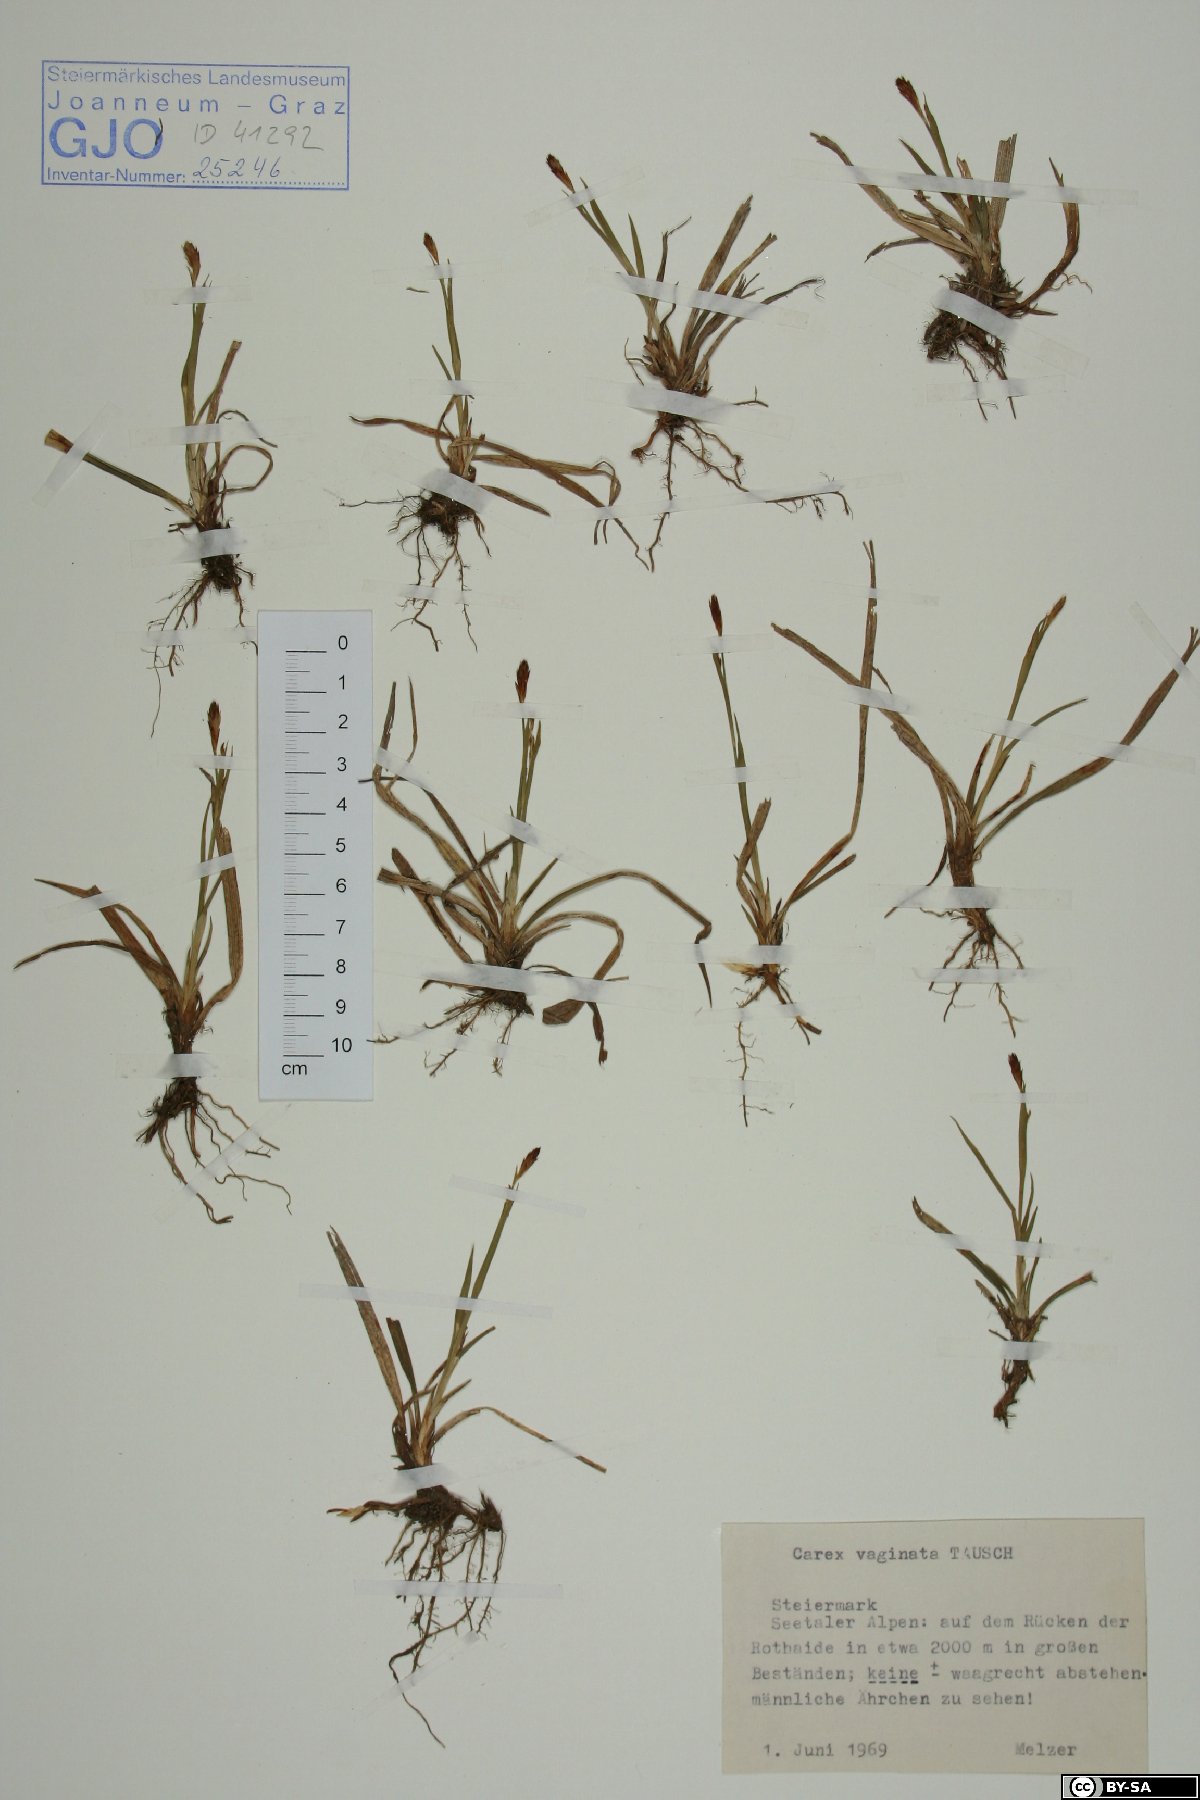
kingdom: Plantae
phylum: Tracheophyta
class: Liliopsida
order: Poales
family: Cyperaceae
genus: Carex
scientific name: Carex vaginata
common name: Sheathed sedge
